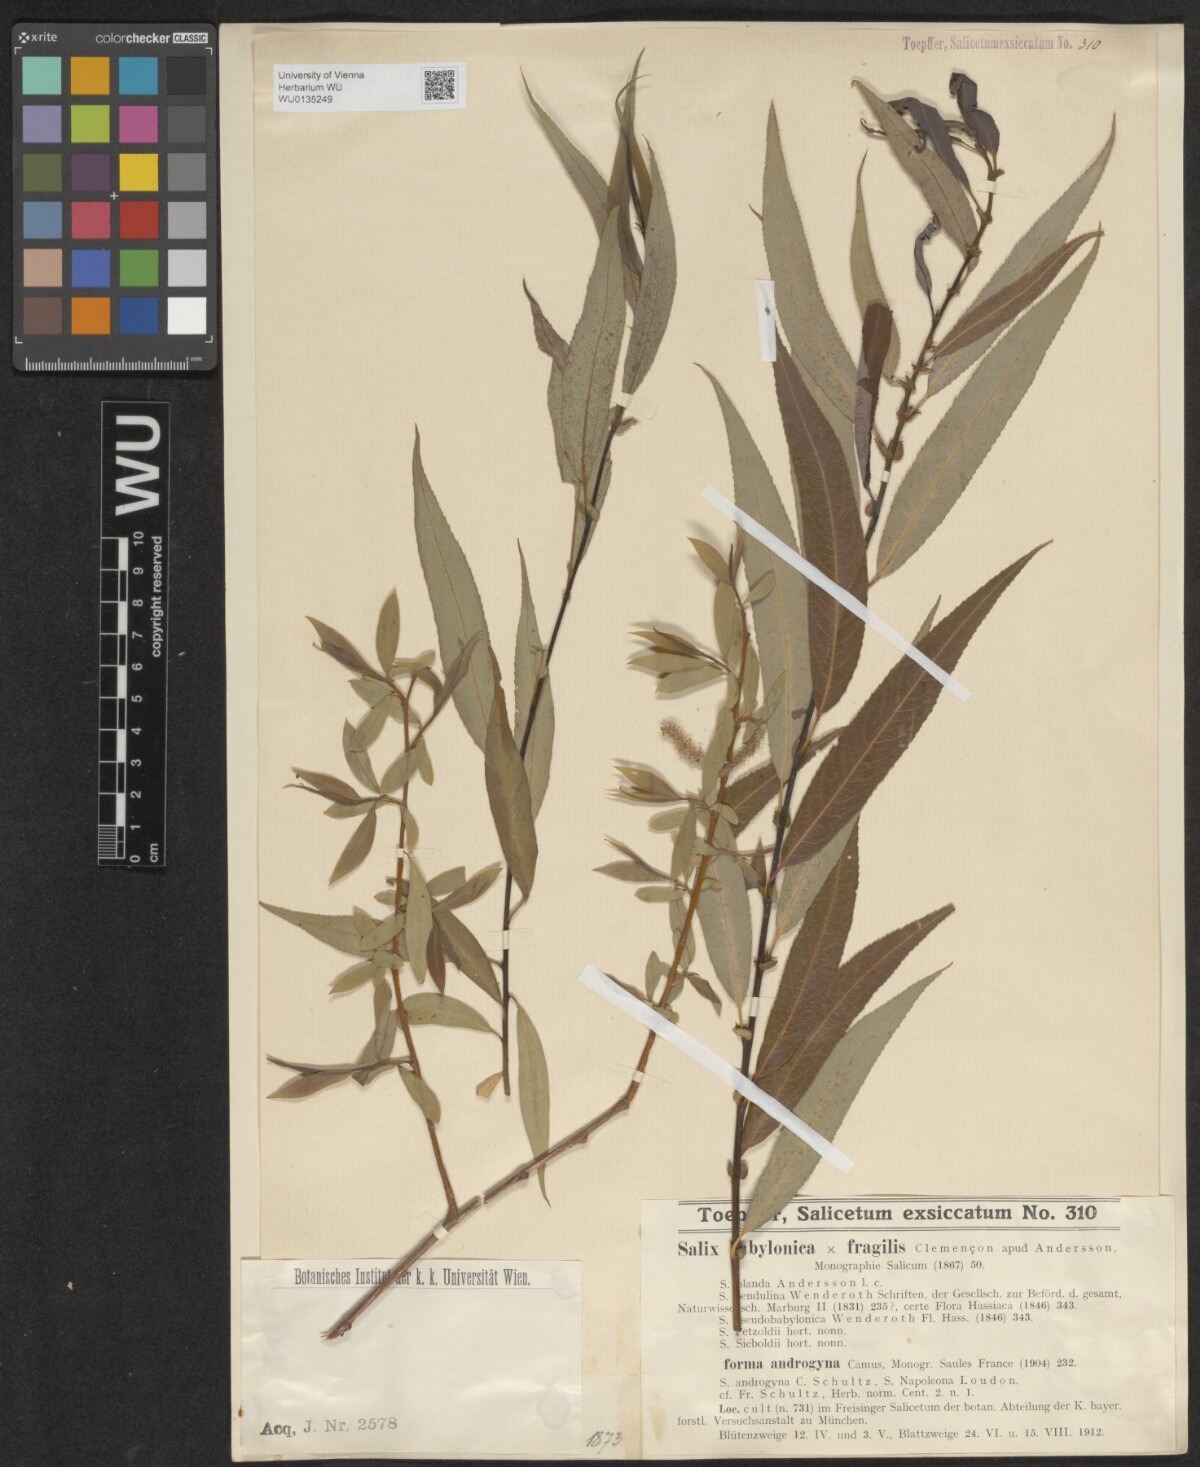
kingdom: Plantae
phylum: Tracheophyta
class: Magnoliopsida
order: Malpighiales
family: Salicaceae
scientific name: Salicaceae
